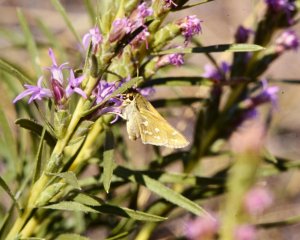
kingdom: Animalia
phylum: Arthropoda
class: Insecta
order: Lepidoptera
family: Hesperiidae
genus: Hesperia
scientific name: Hesperia comma
